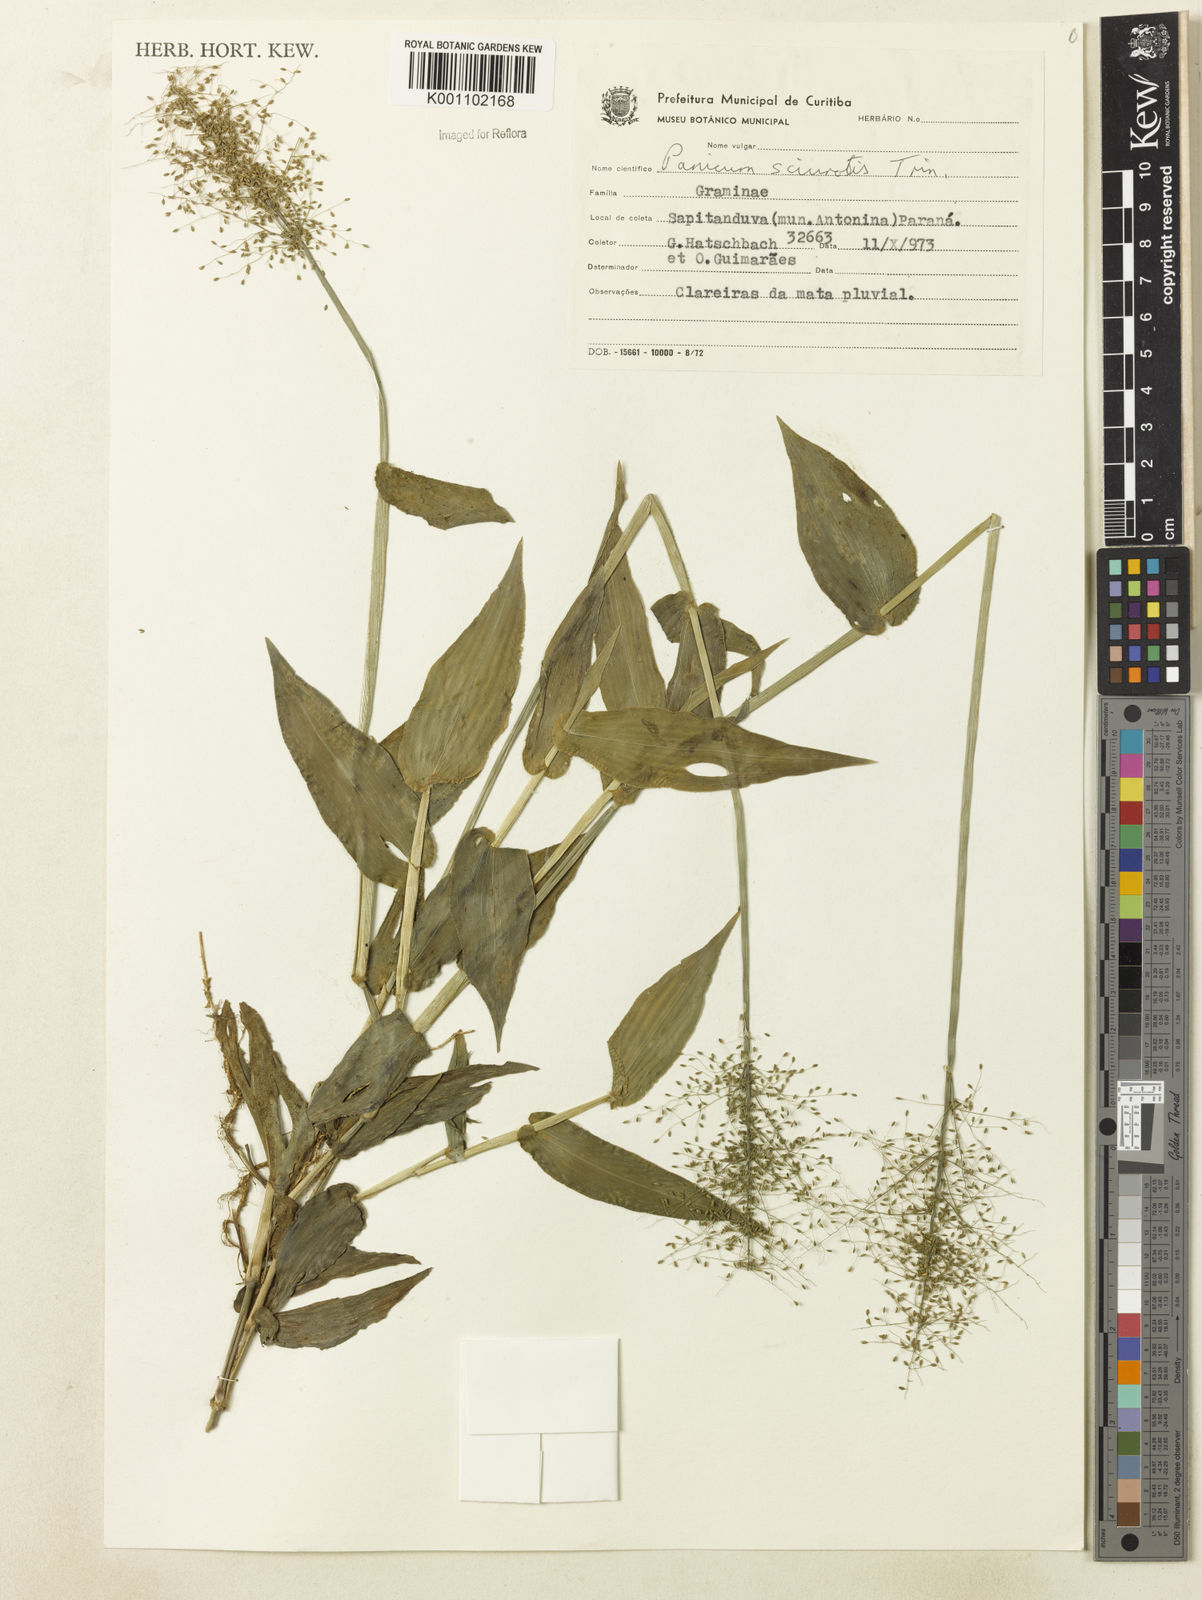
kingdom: Plantae
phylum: Tracheophyta
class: Liliopsida
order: Poales
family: Poaceae
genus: Dichanthelium
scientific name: Dichanthelium sciurotoides
